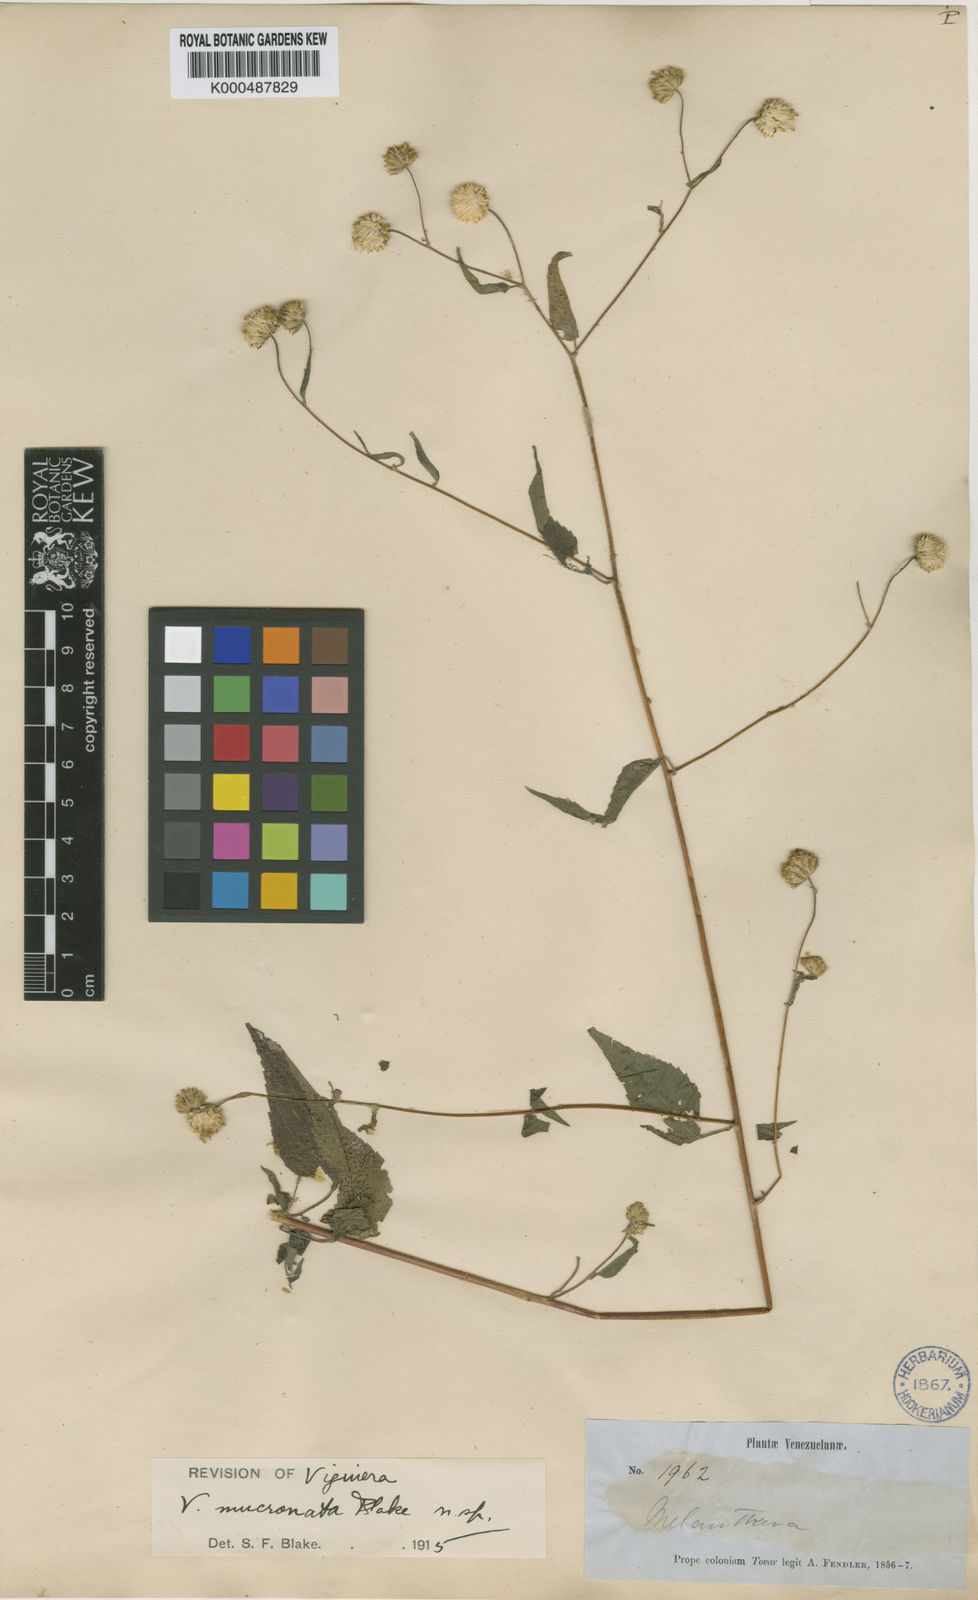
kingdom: Plantae
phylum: Tracheophyta
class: Magnoliopsida
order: Asterales
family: Asteraceae
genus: Hymenostephium
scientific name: Hymenostephium mucronatum
